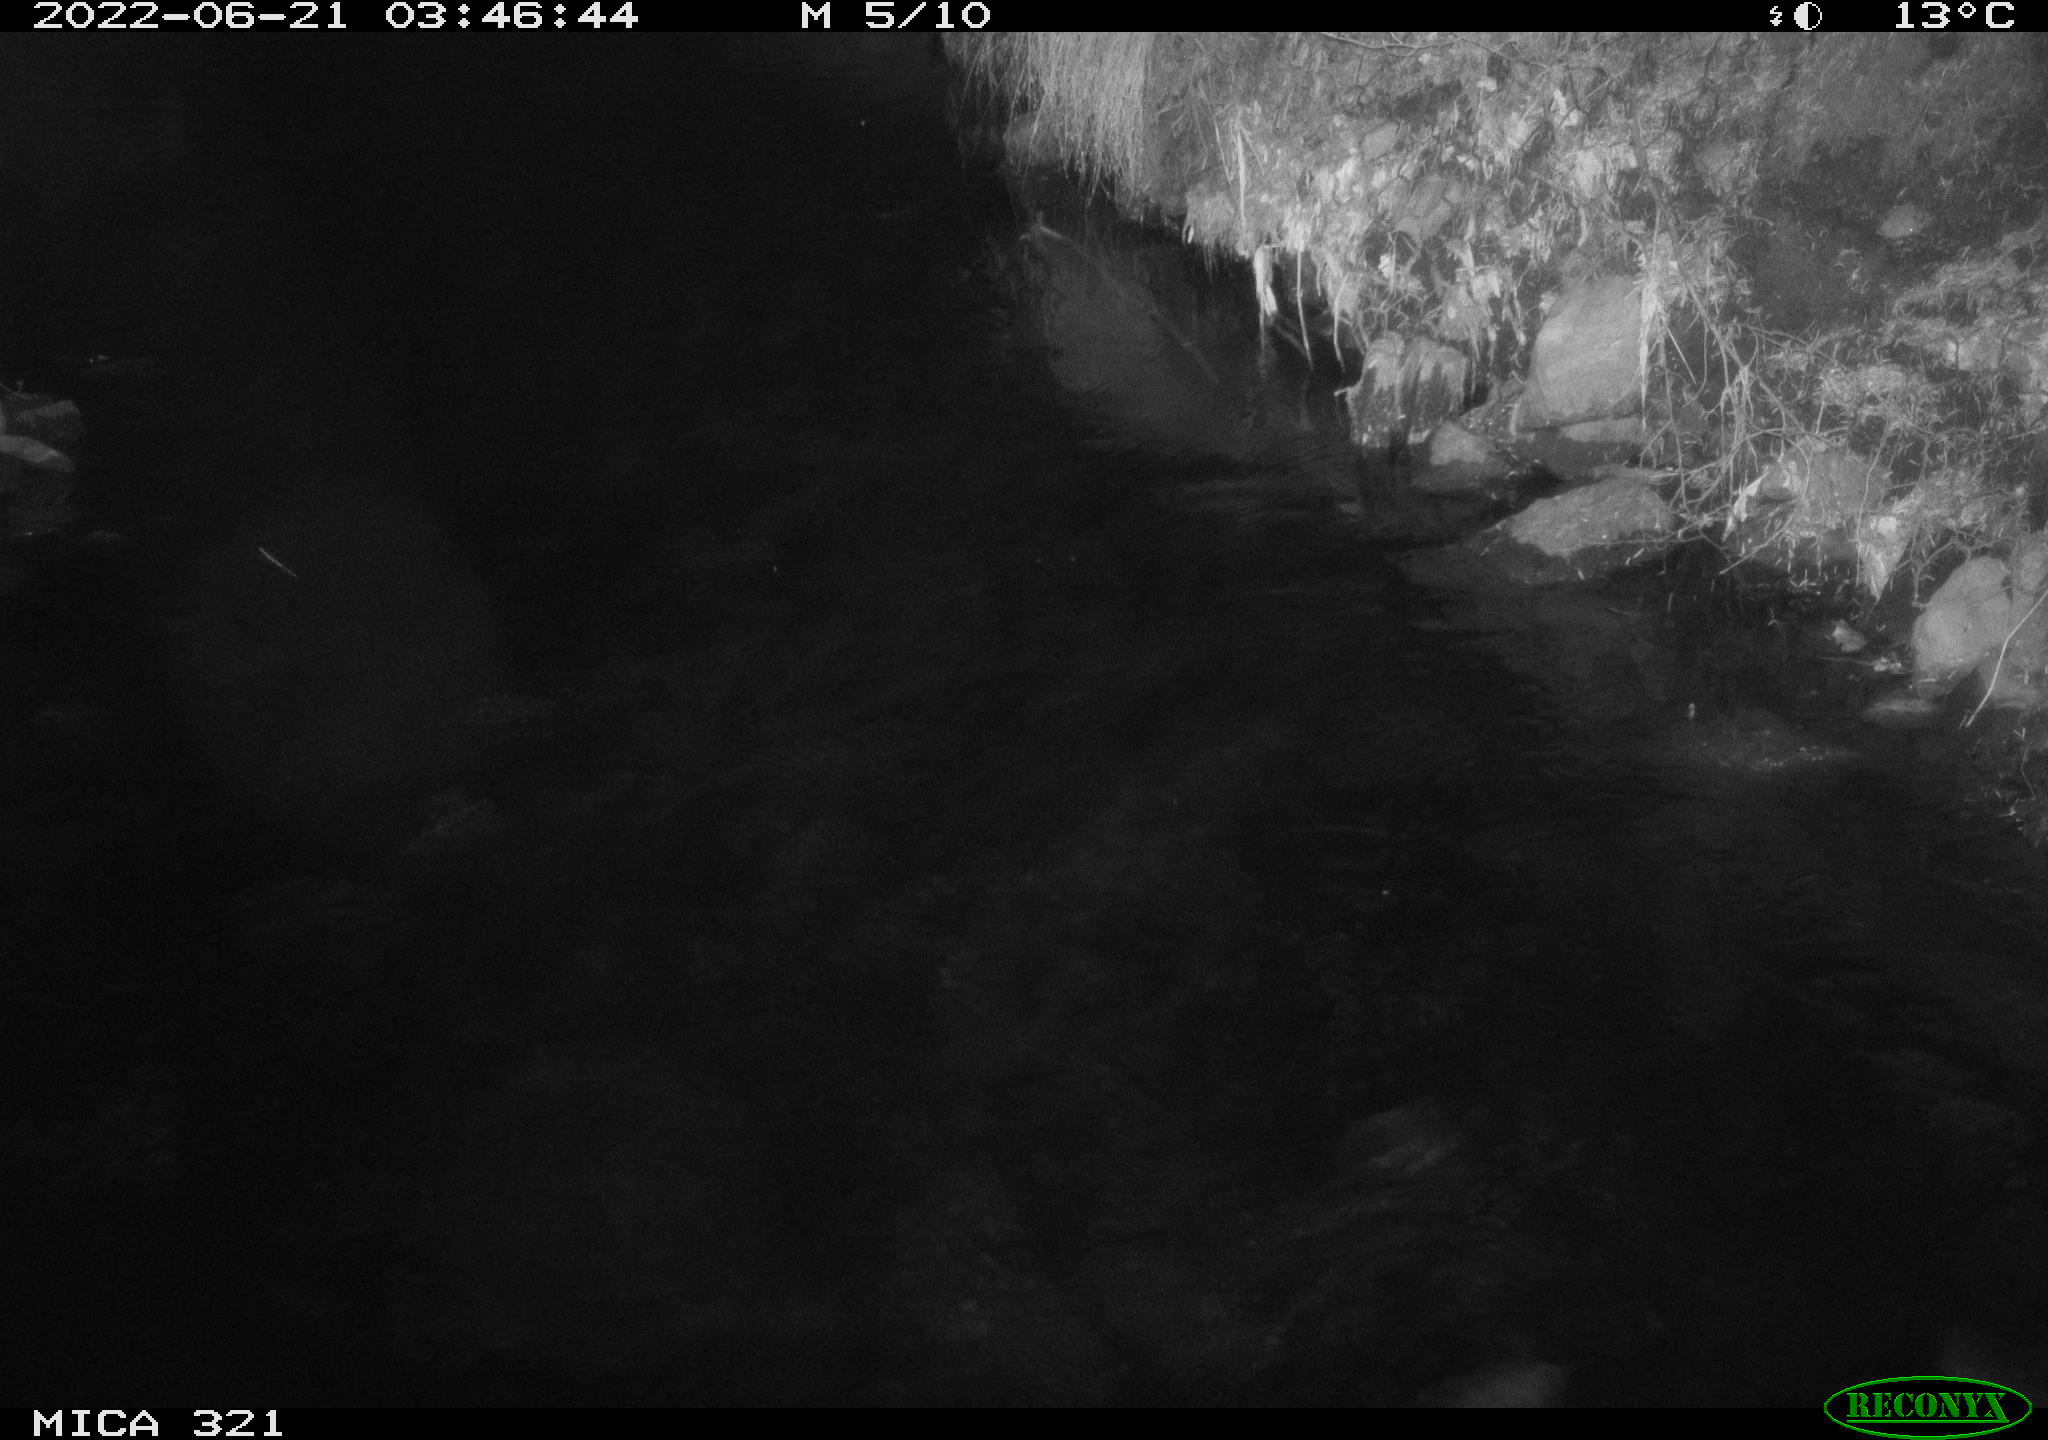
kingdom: Animalia
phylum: Chordata
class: Aves
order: Anseriformes
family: Anatidae
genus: Anas
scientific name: Anas platyrhynchos
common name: Mallard
